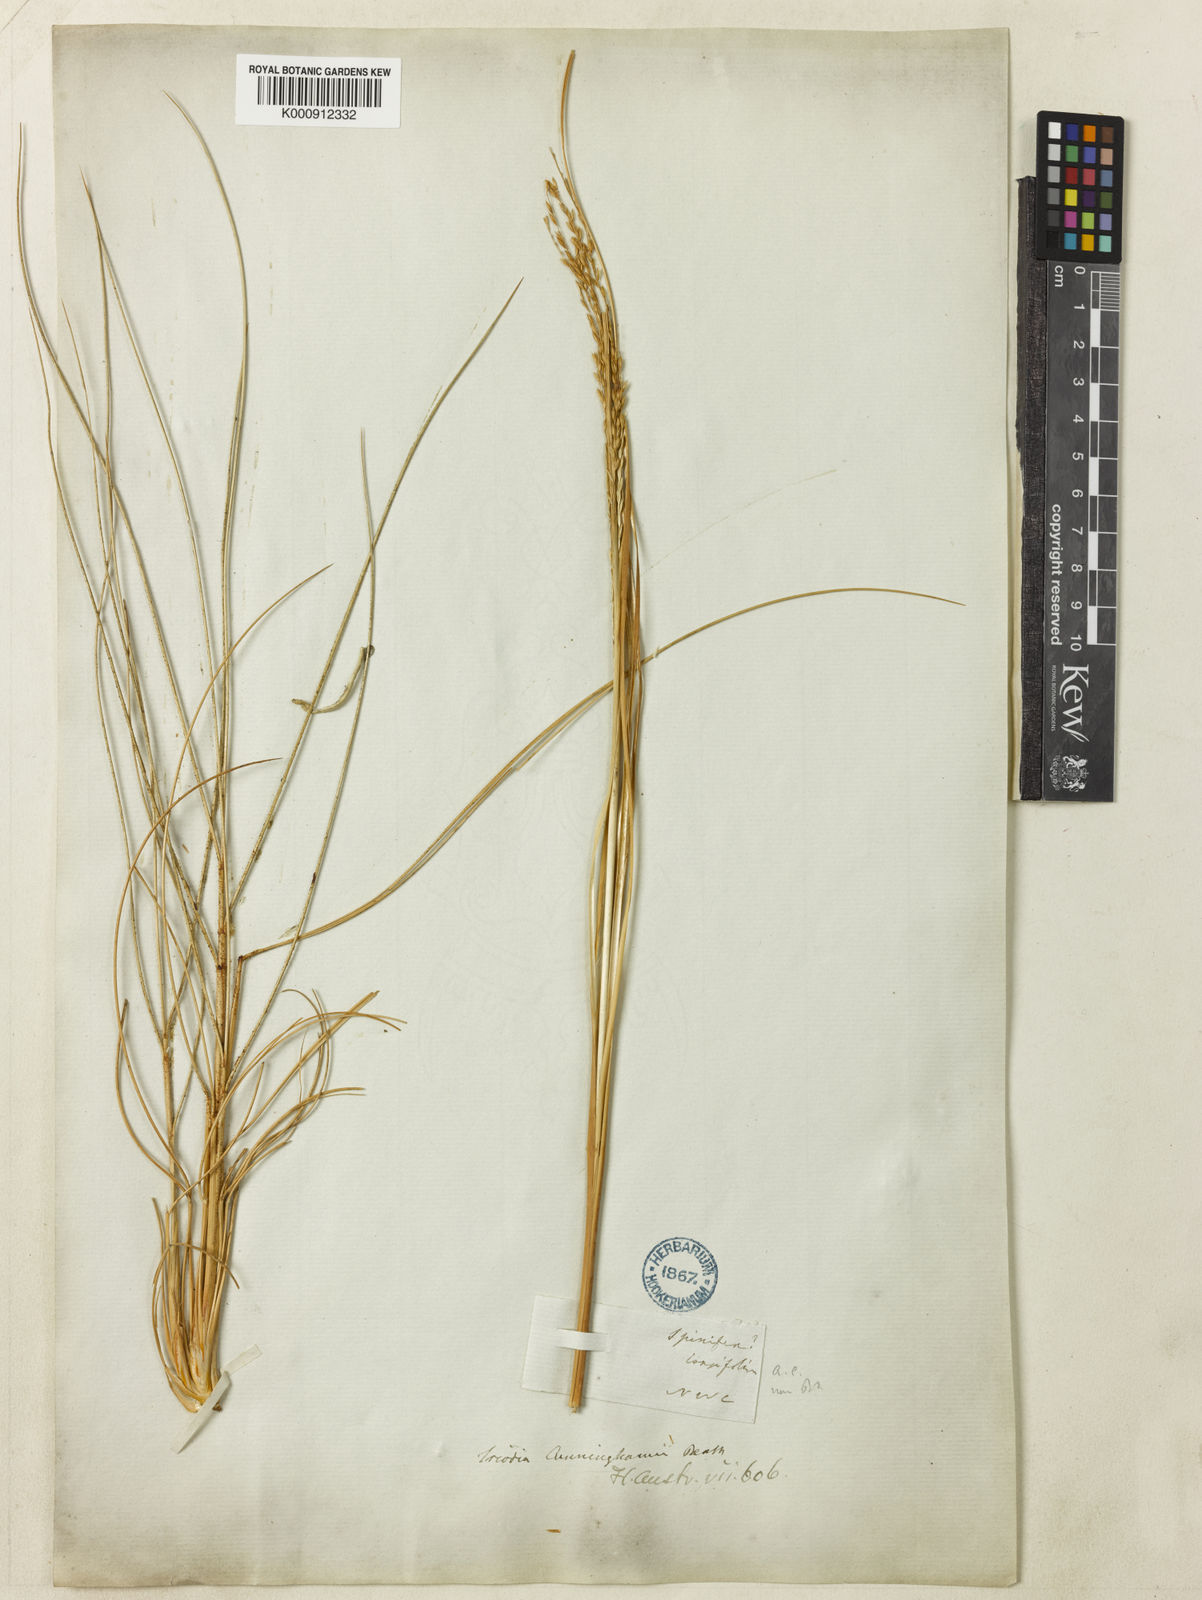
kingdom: Plantae
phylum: Tracheophyta
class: Liliopsida
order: Poales
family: Poaceae
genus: Triodia
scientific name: Triodia cunninghamii
